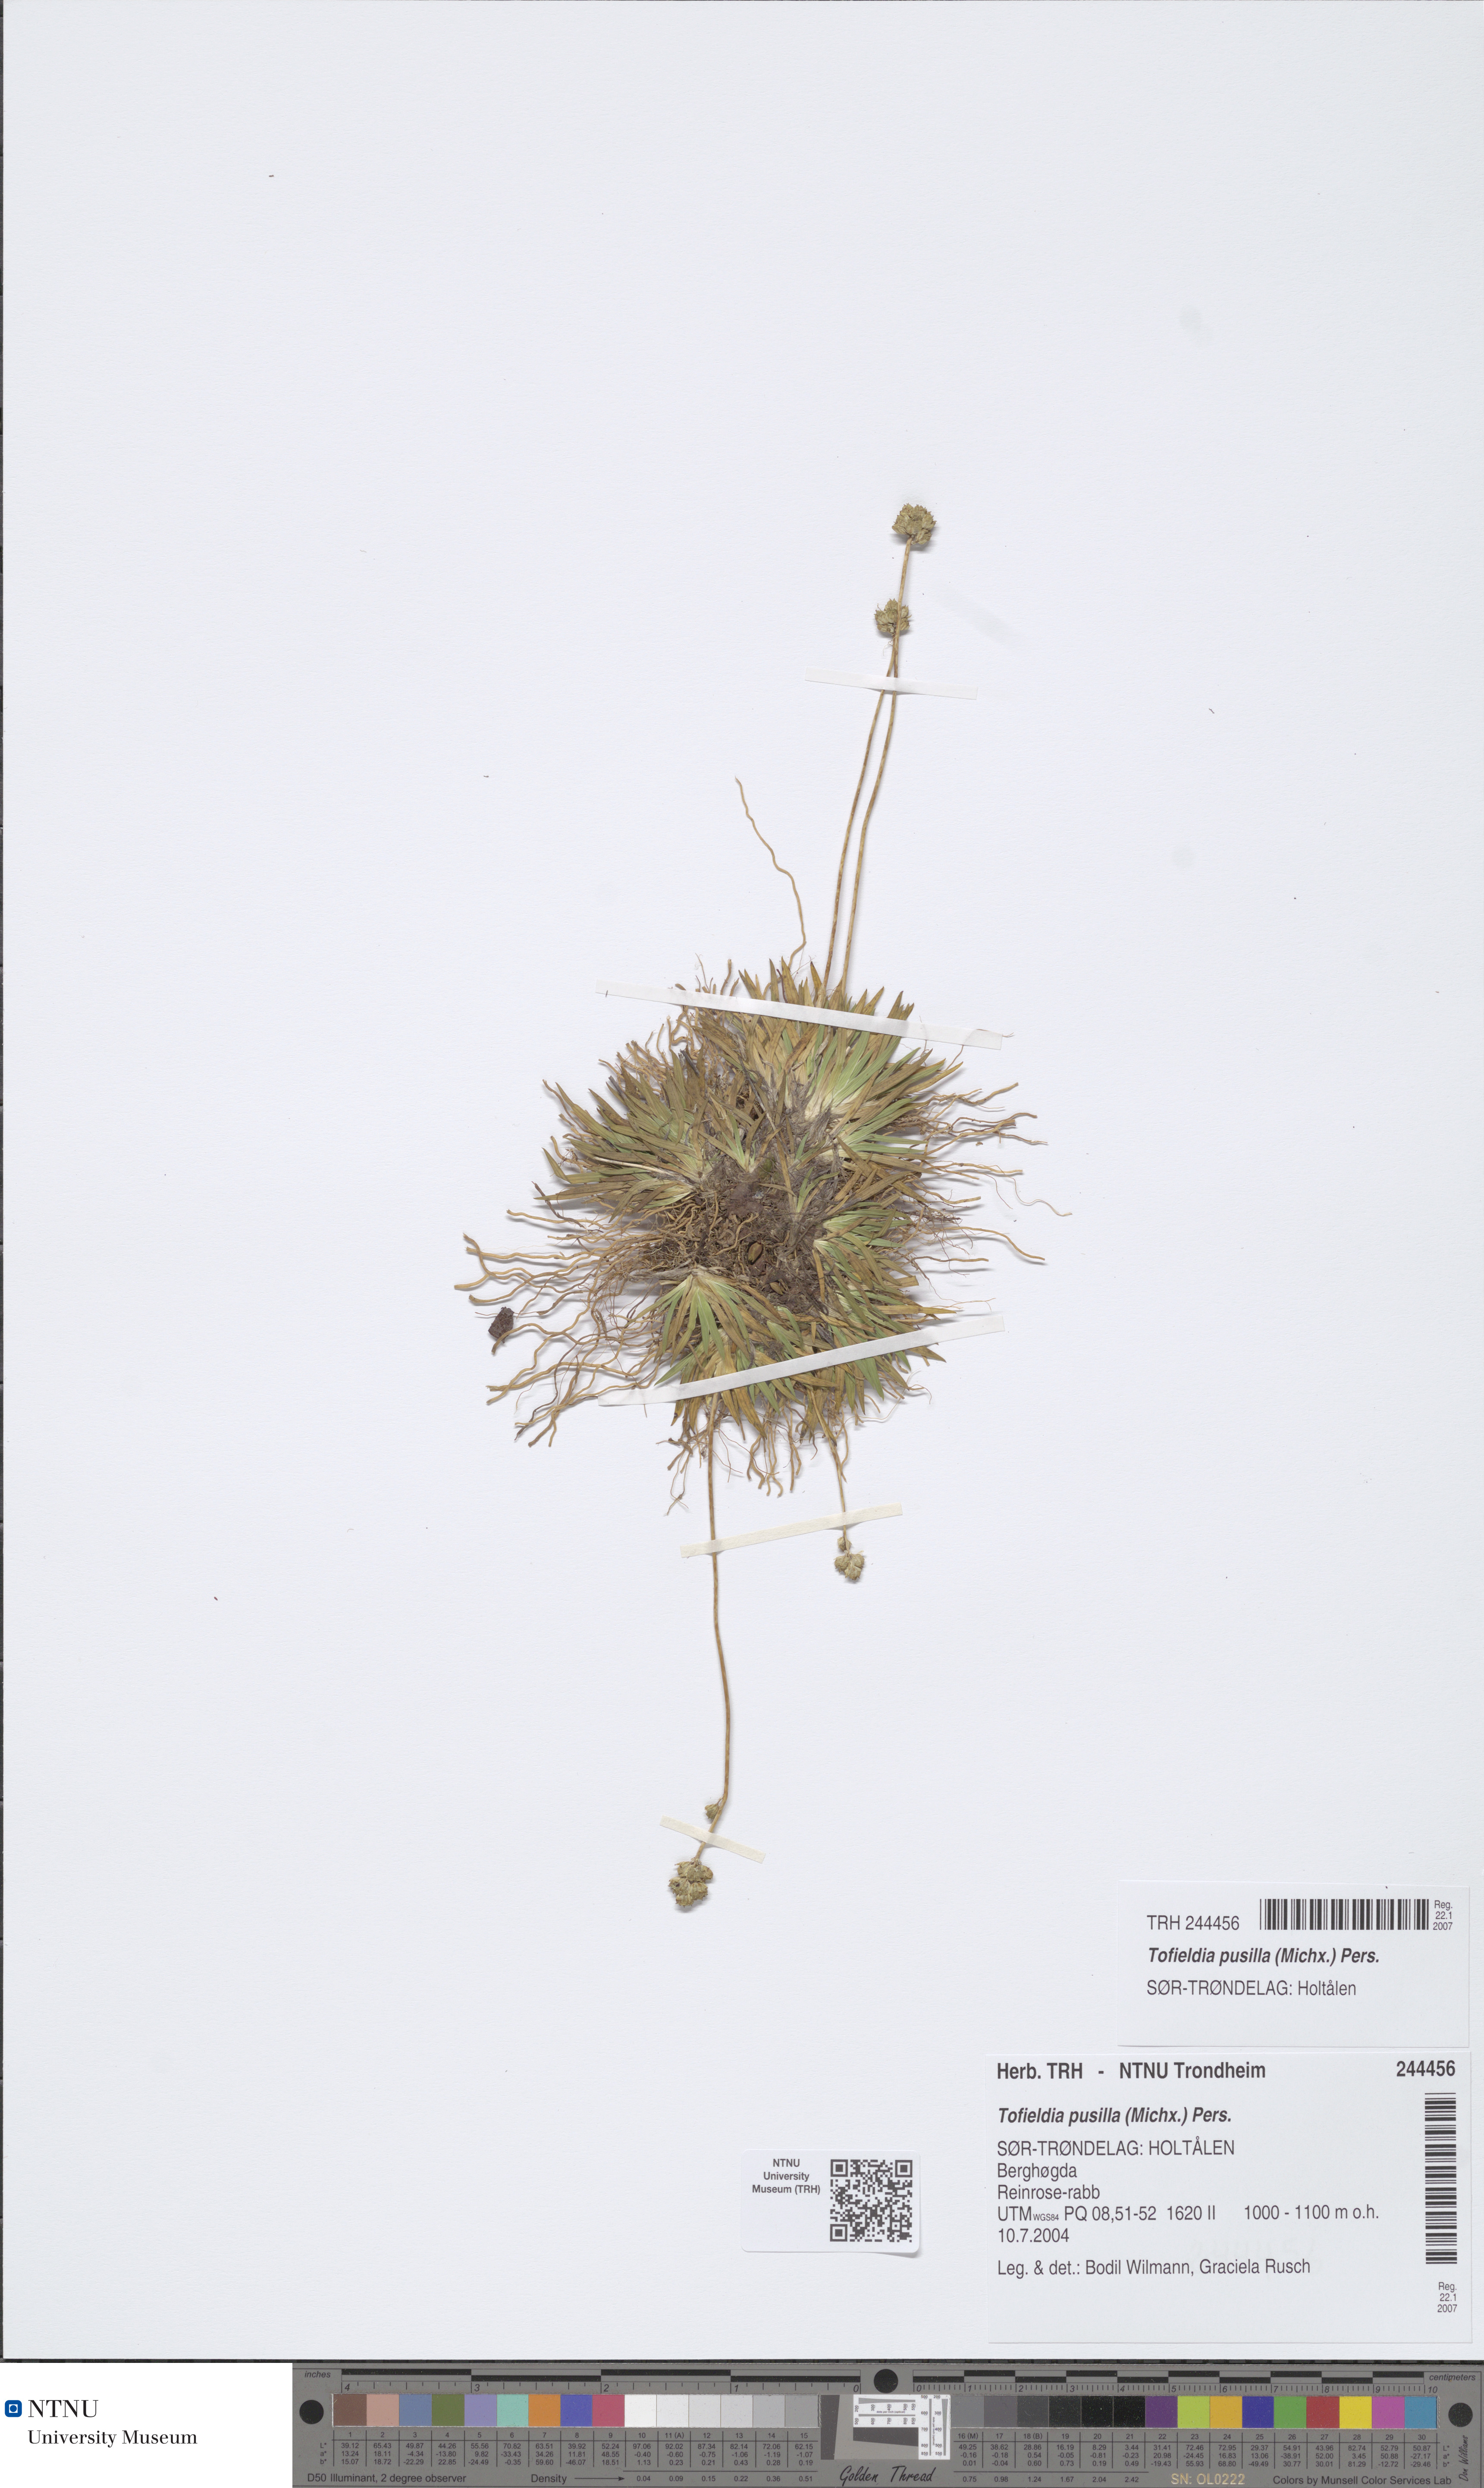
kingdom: Plantae
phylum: Tracheophyta
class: Liliopsida
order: Alismatales
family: Tofieldiaceae
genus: Tofieldia
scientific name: Tofieldia pusilla
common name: Scottish false asphodel
